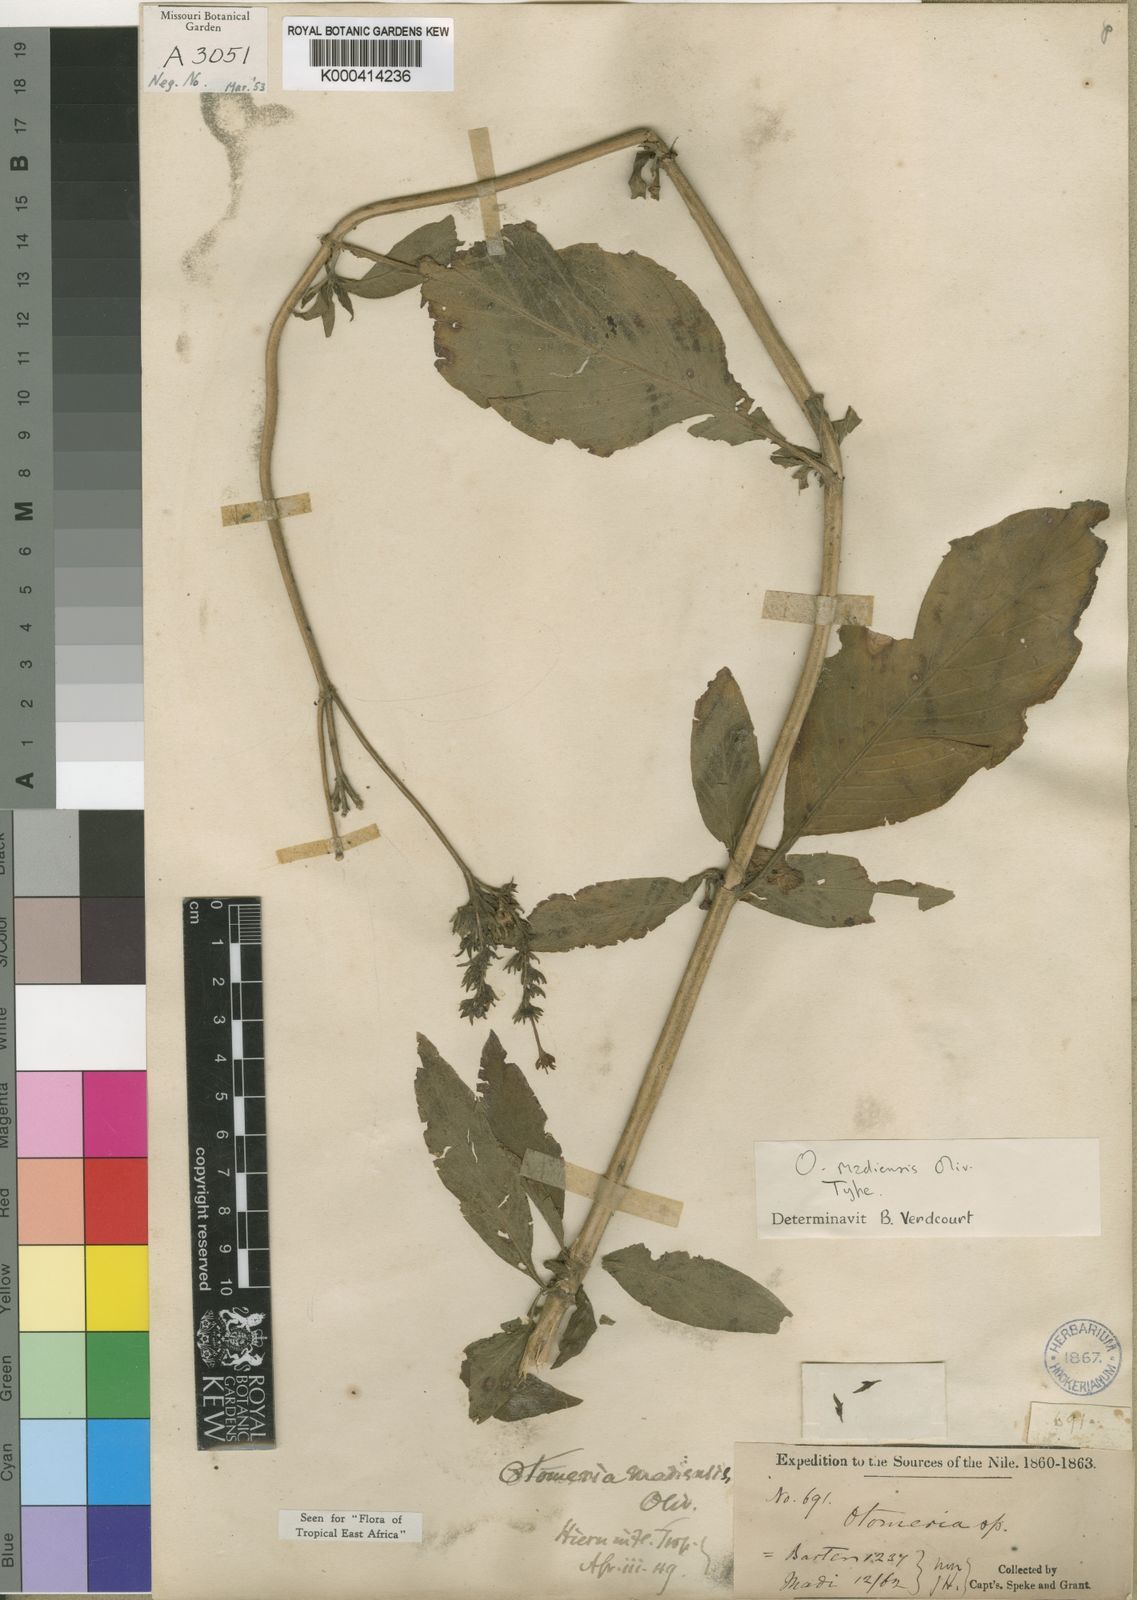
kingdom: Plantae
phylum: Tracheophyta
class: Magnoliopsida
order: Gentianales
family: Rubiaceae
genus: Otomeria
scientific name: Otomeria madiensis
